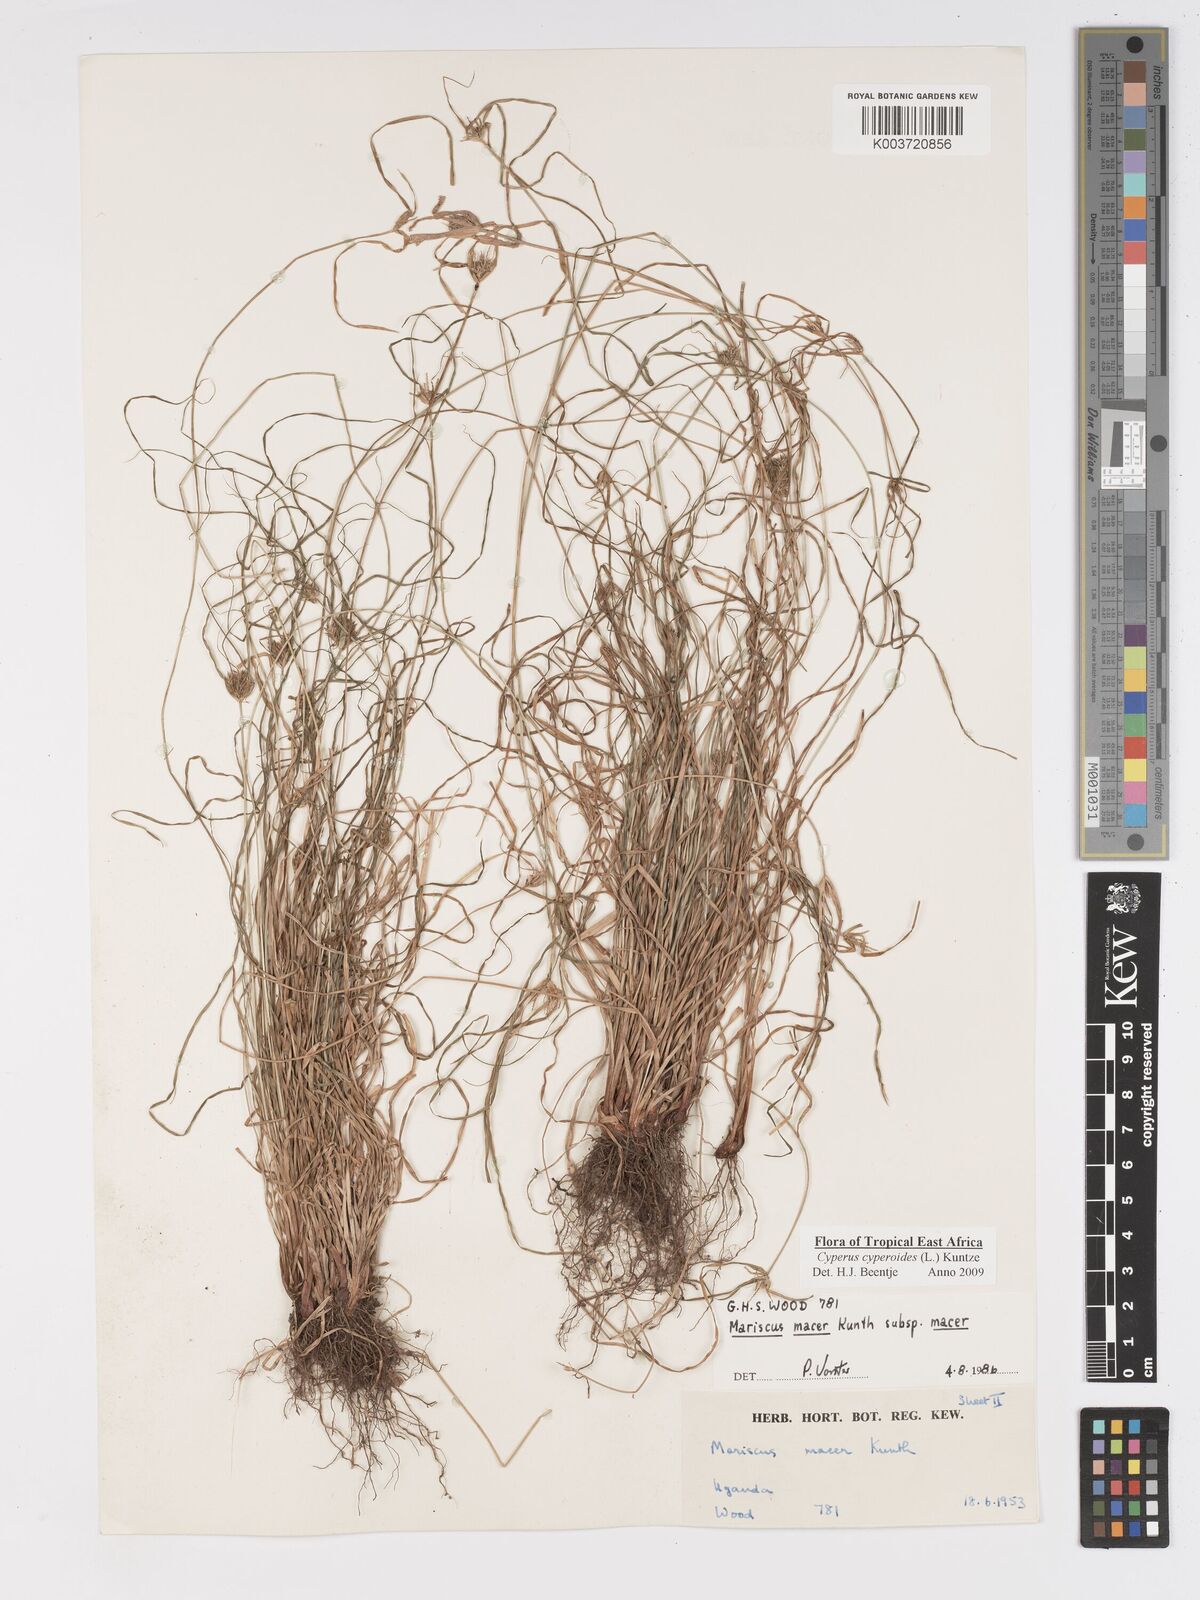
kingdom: Plantae
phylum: Tracheophyta
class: Liliopsida
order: Poales
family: Cyperaceae
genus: Cyperus
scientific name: Cyperus pseudoflavus
